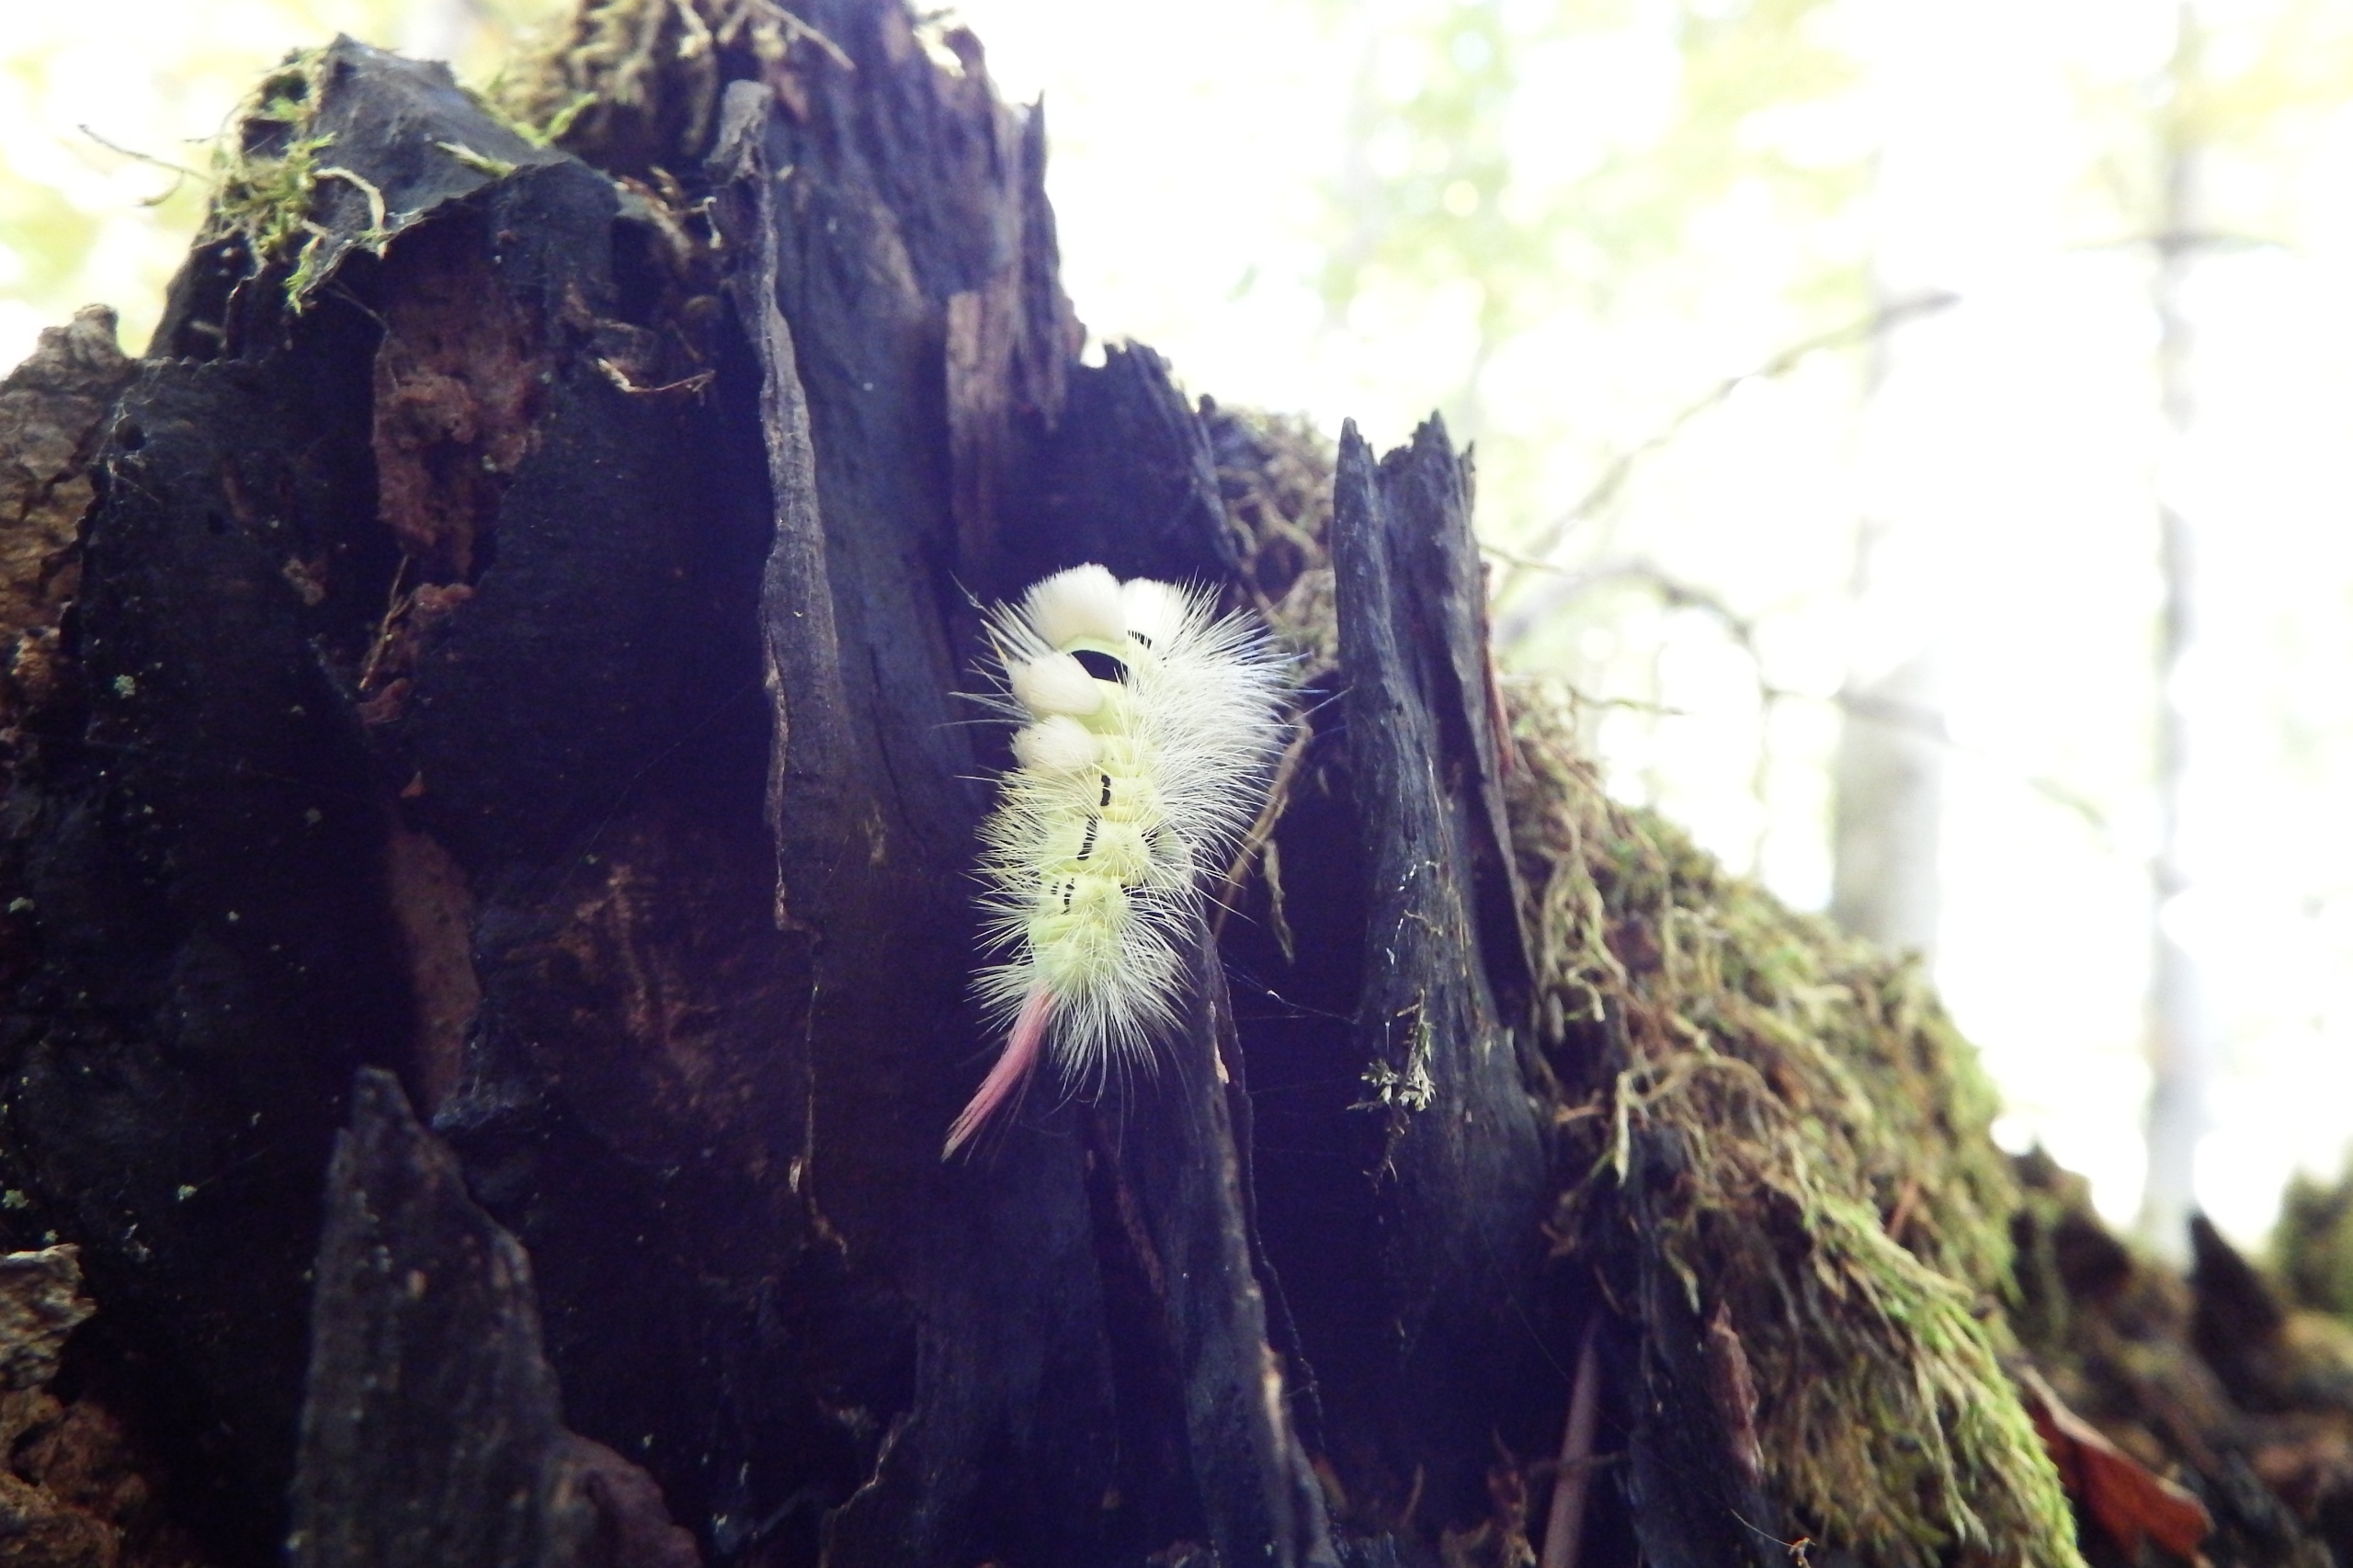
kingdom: Animalia
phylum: Arthropoda
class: Insecta
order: Lepidoptera
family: Erebidae
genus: Calliteara
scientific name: Calliteara pudibunda
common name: Bøgenonne
